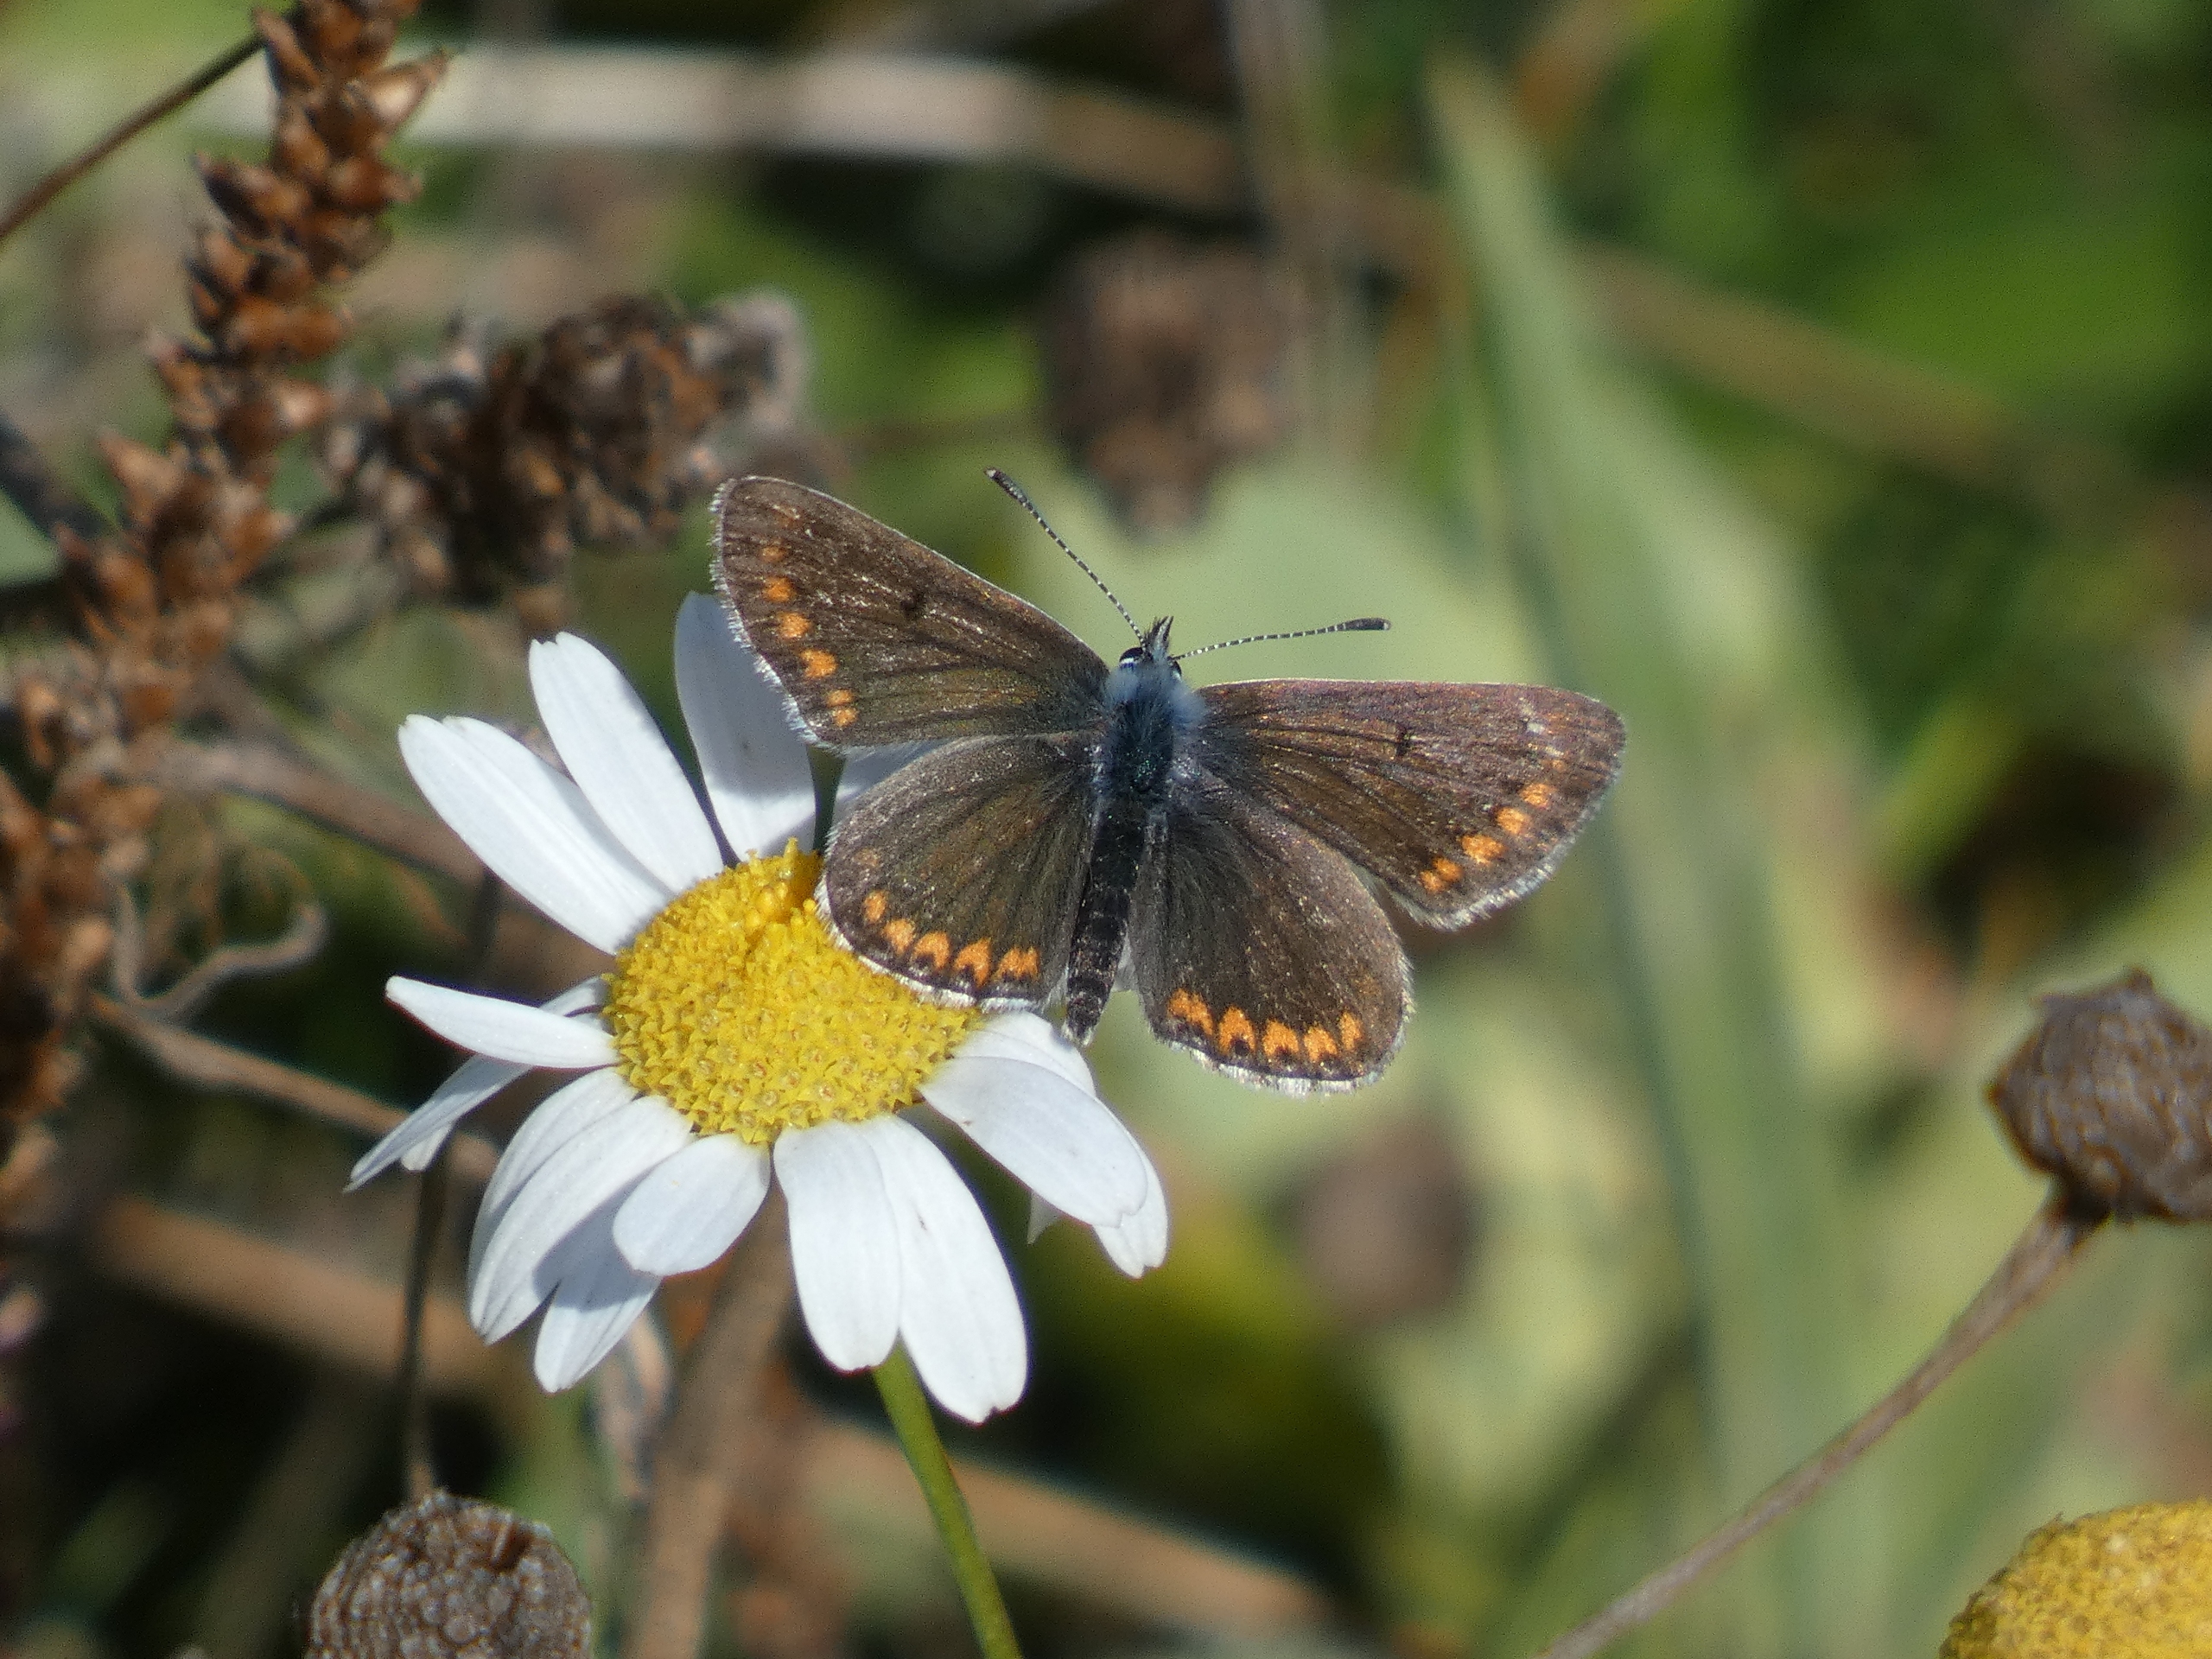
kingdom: Animalia
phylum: Arthropoda
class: Insecta
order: Lepidoptera
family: Lycaenidae
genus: Aricia
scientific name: Aricia agestis
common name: Rødplettet blåfugl
